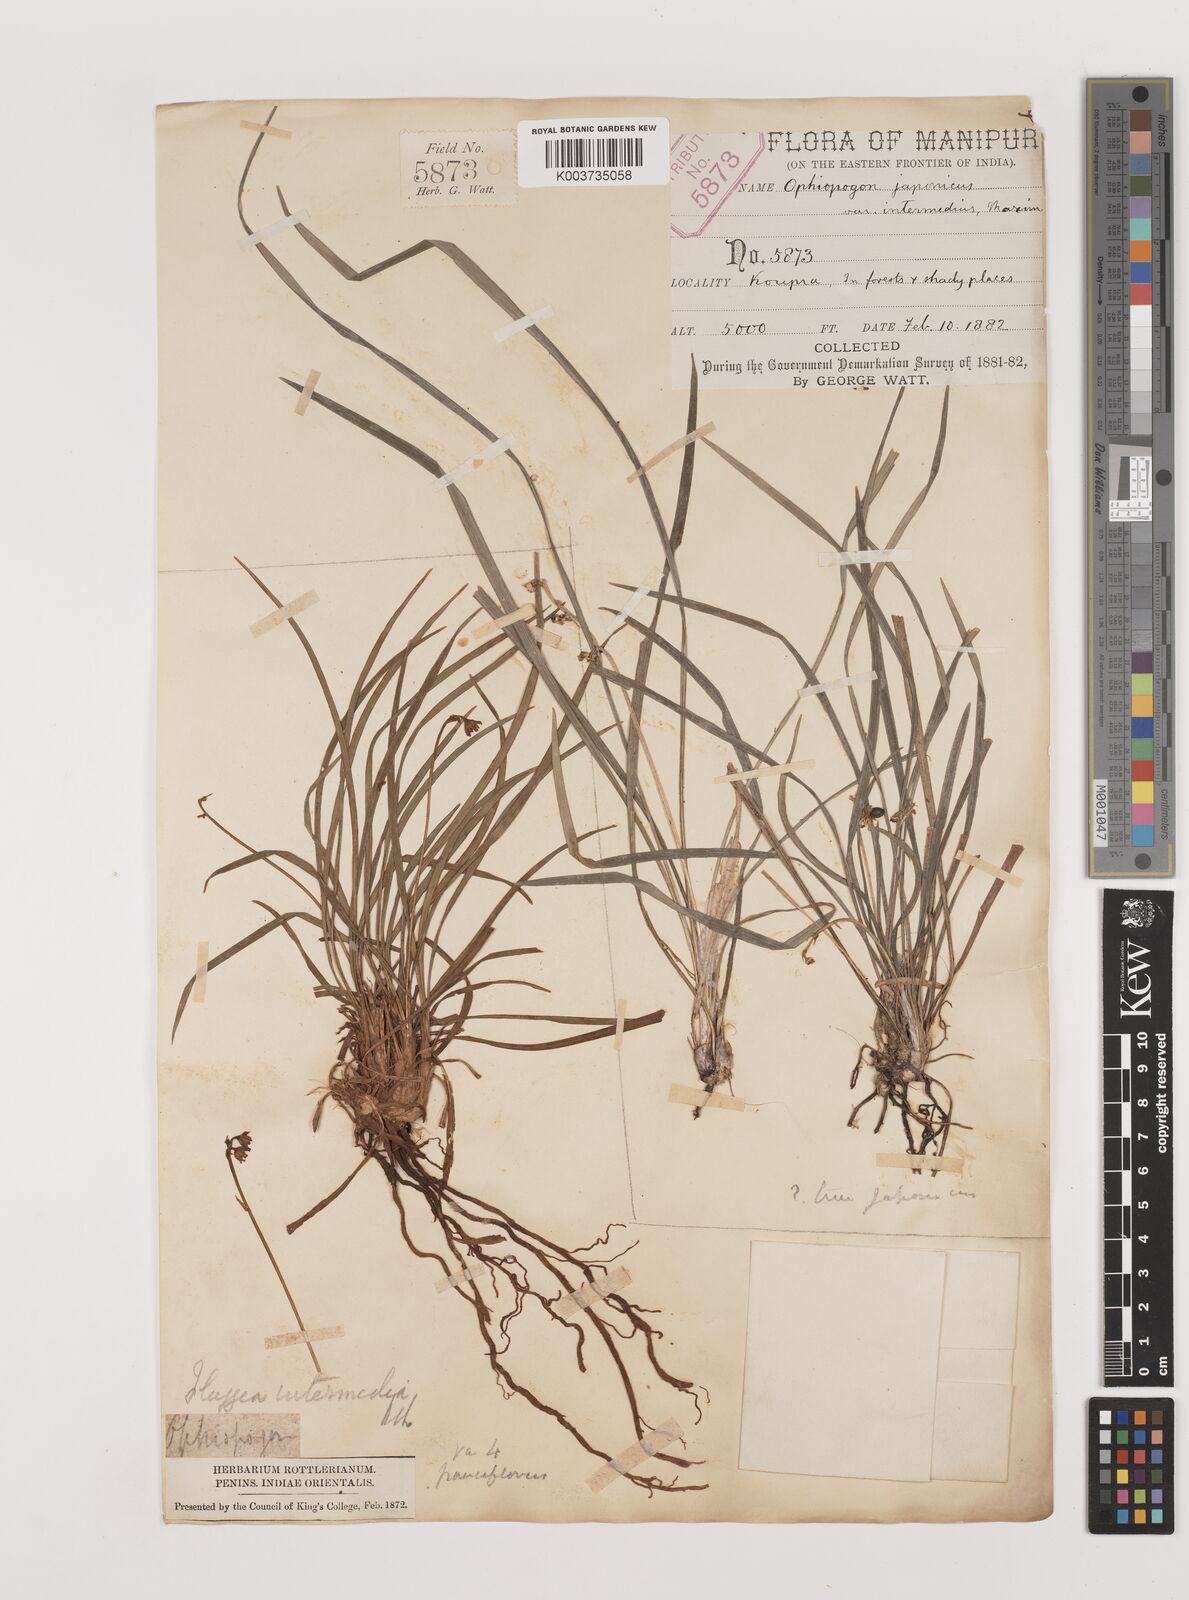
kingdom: Plantae
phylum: Tracheophyta
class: Liliopsida
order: Asparagales
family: Asparagaceae
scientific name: Asparagaceae
